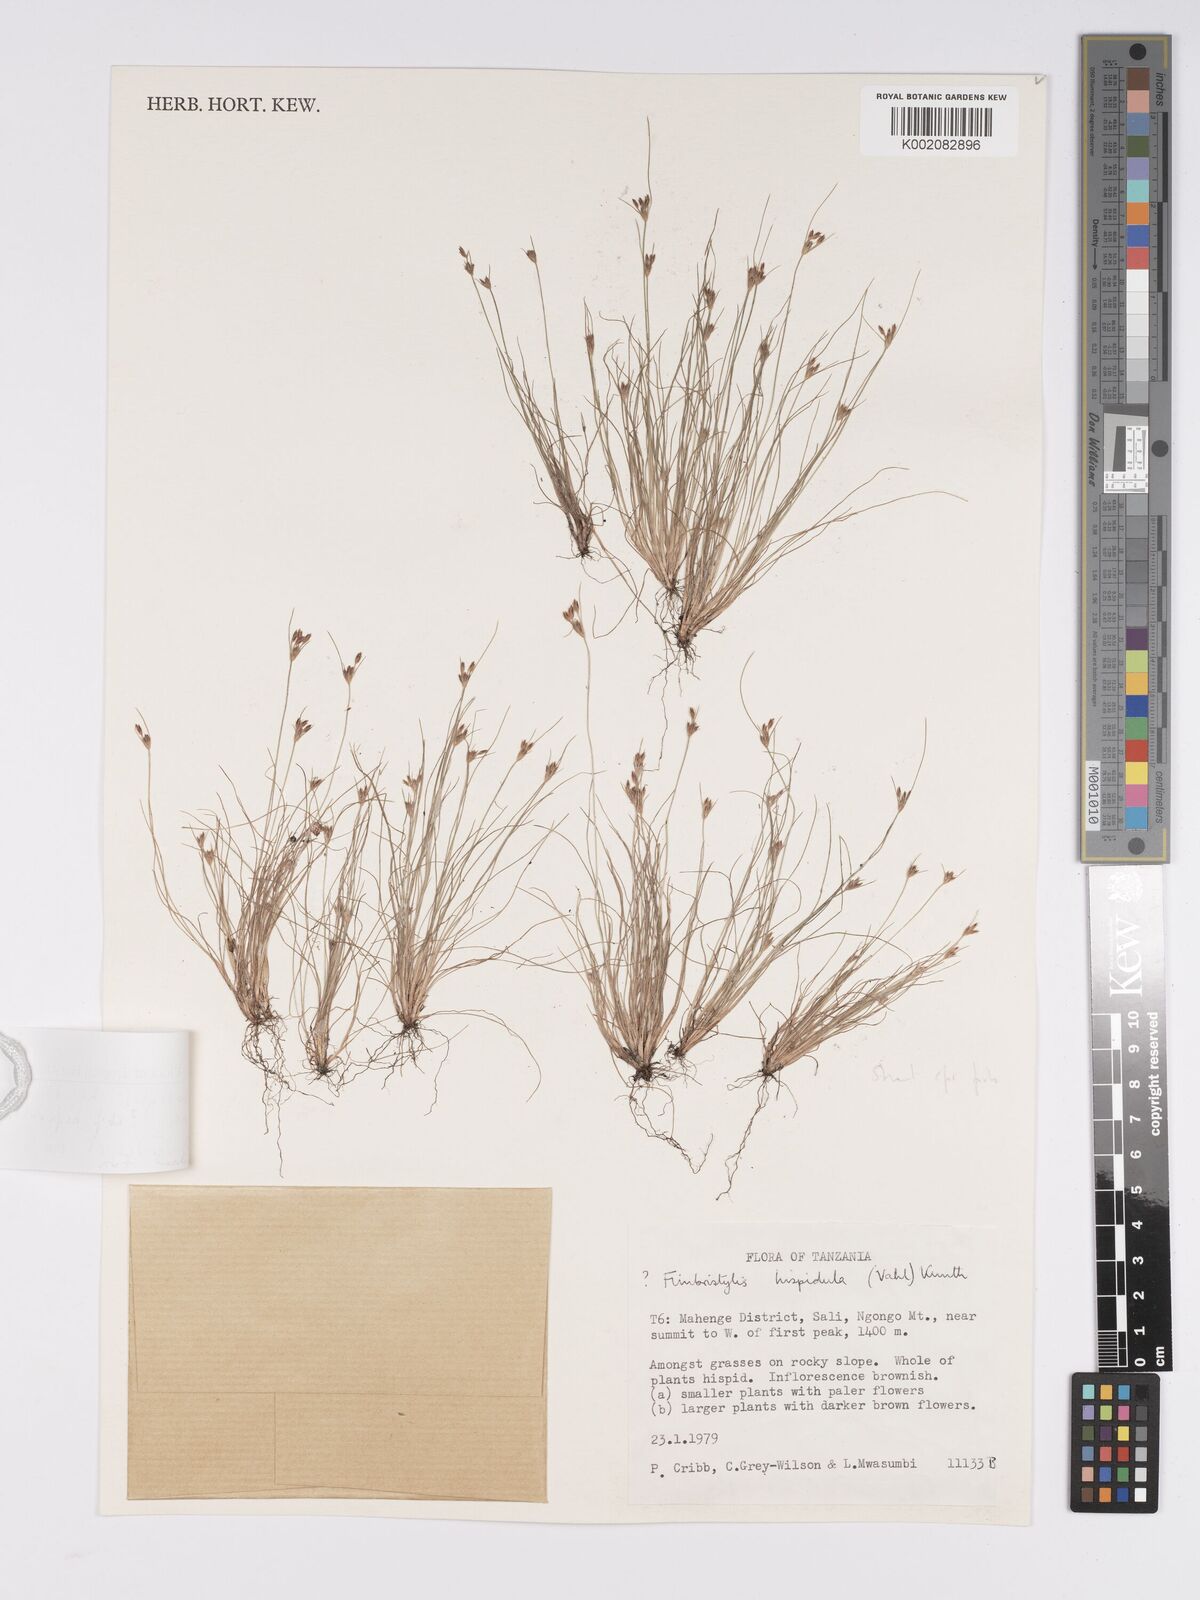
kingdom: Plantae
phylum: Tracheophyta
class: Liliopsida
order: Poales
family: Cyperaceae
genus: Bulbostylis
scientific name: Bulbostylis hispidula
